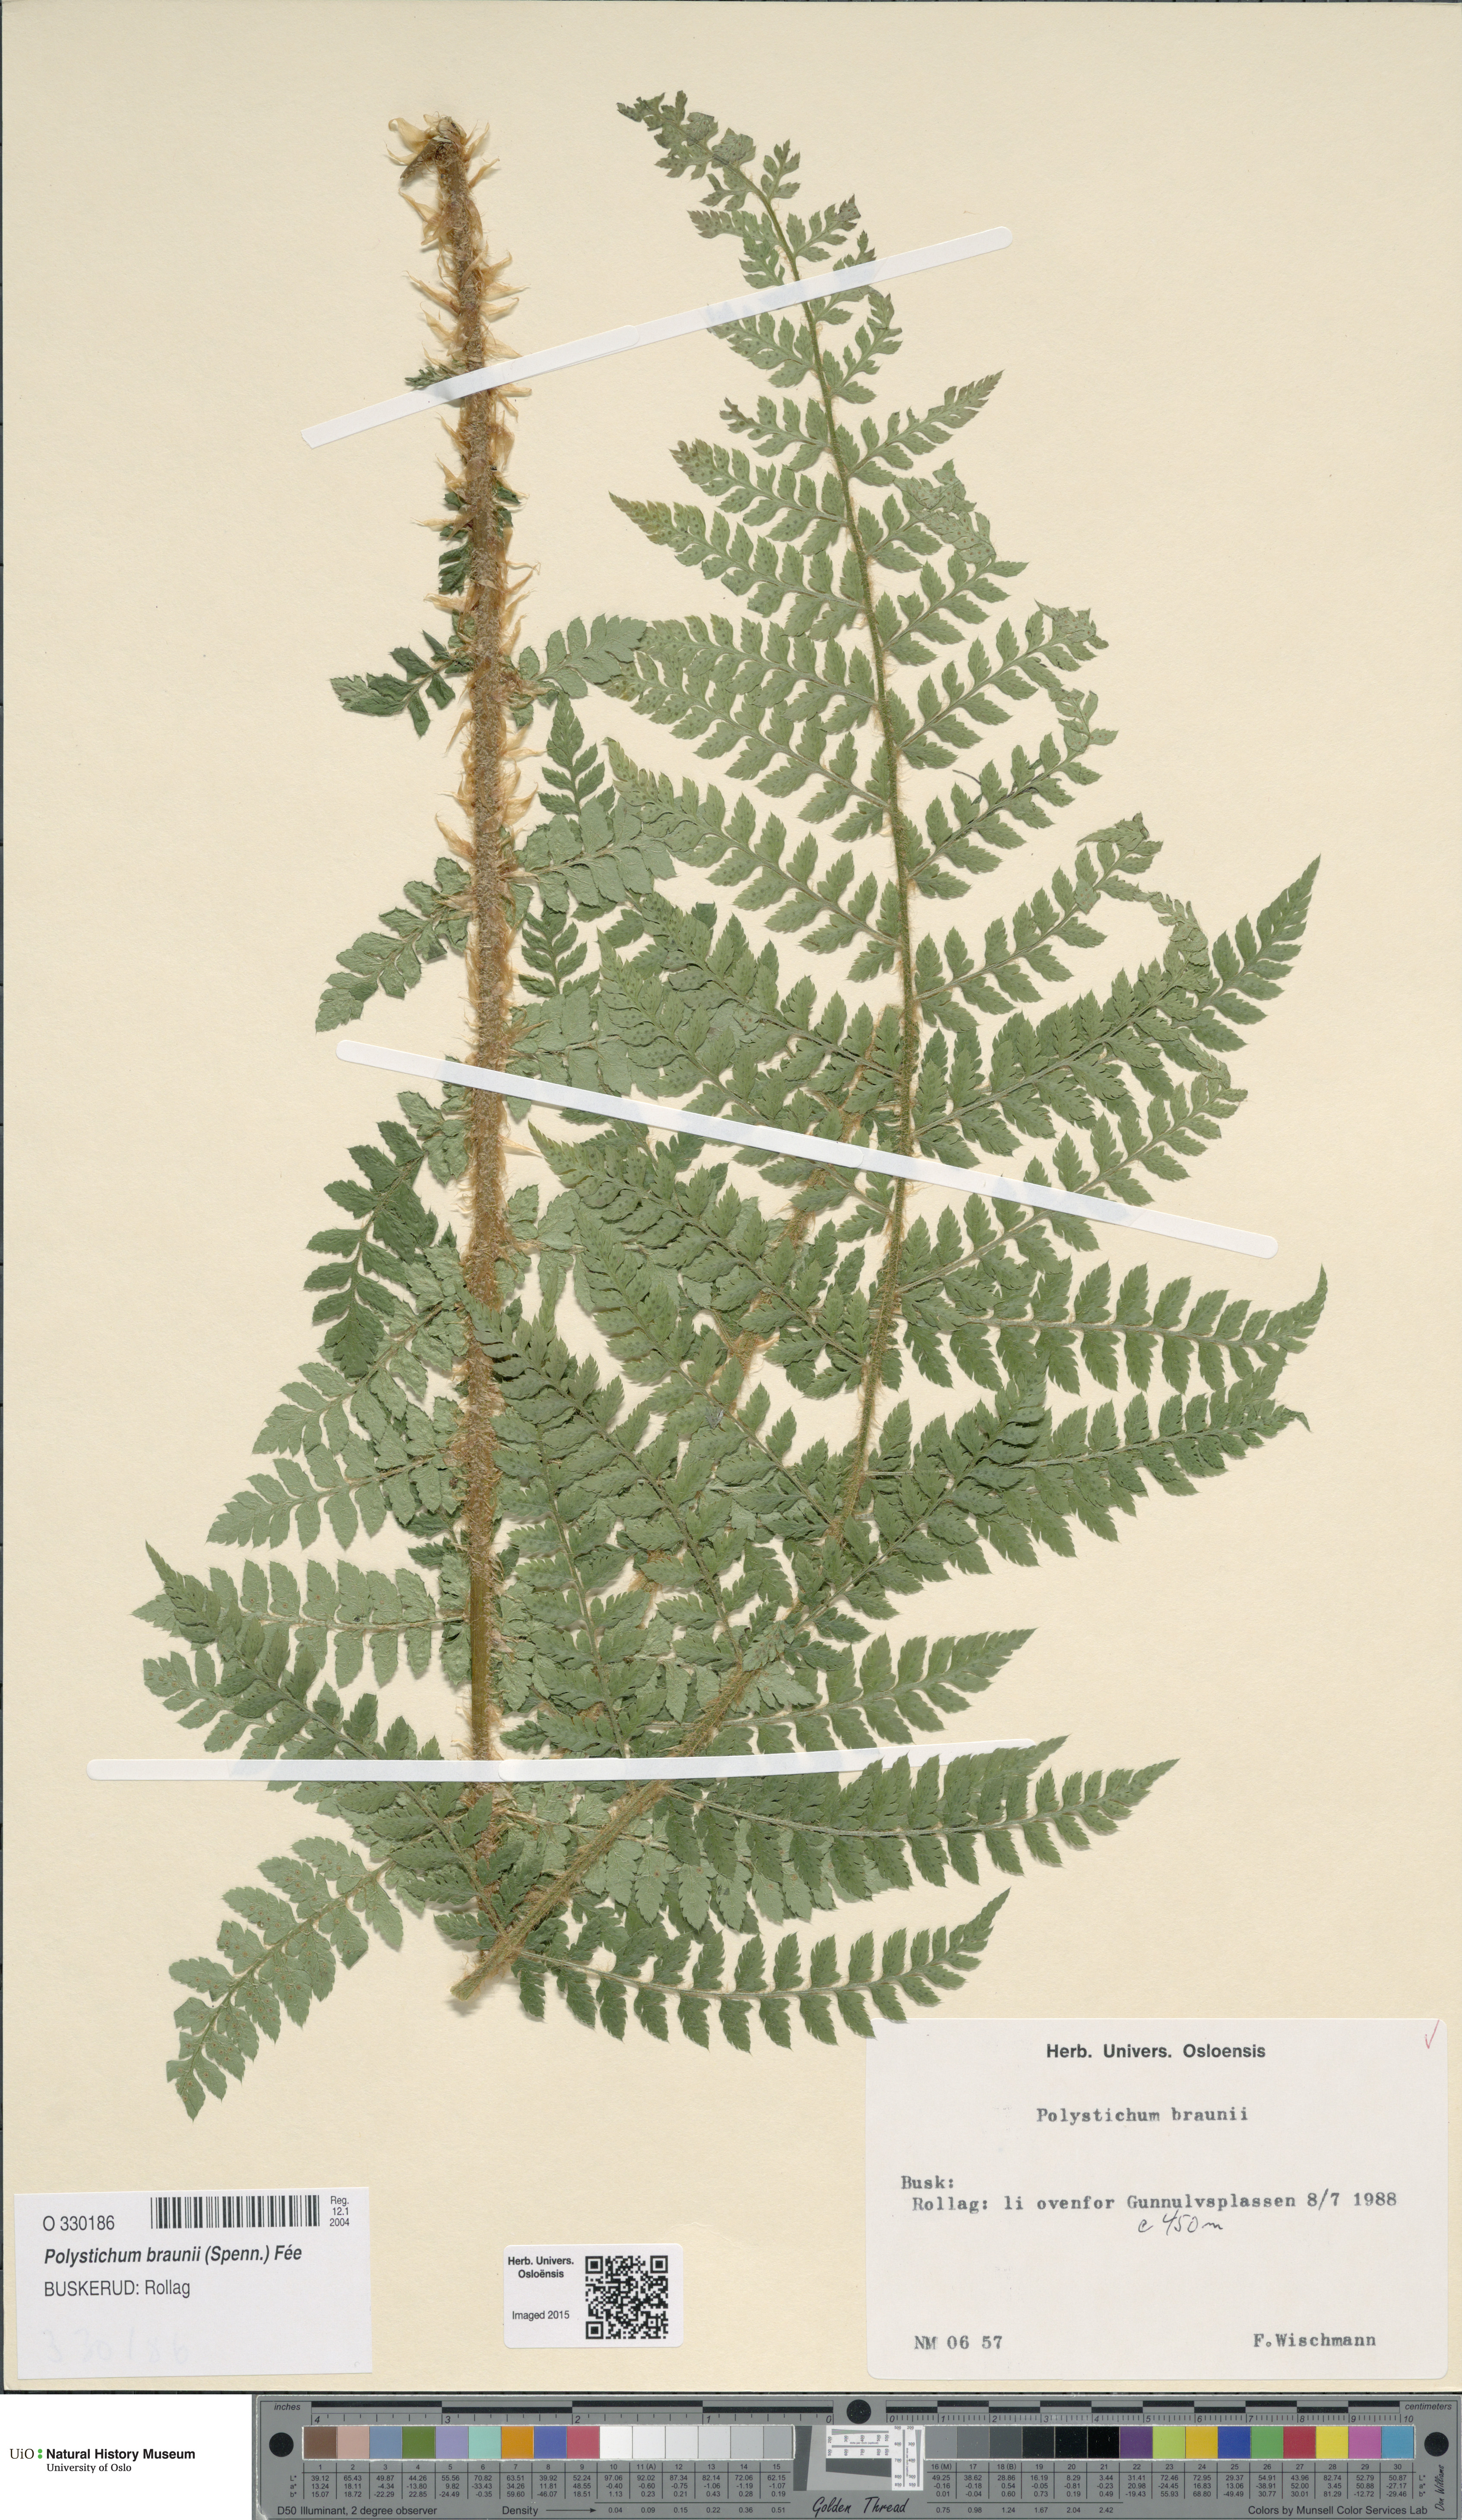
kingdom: Plantae
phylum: Tracheophyta
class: Polypodiopsida
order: Polypodiales
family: Dryopteridaceae
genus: Polystichum
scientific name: Polystichum braunii
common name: Braun's holly fern
